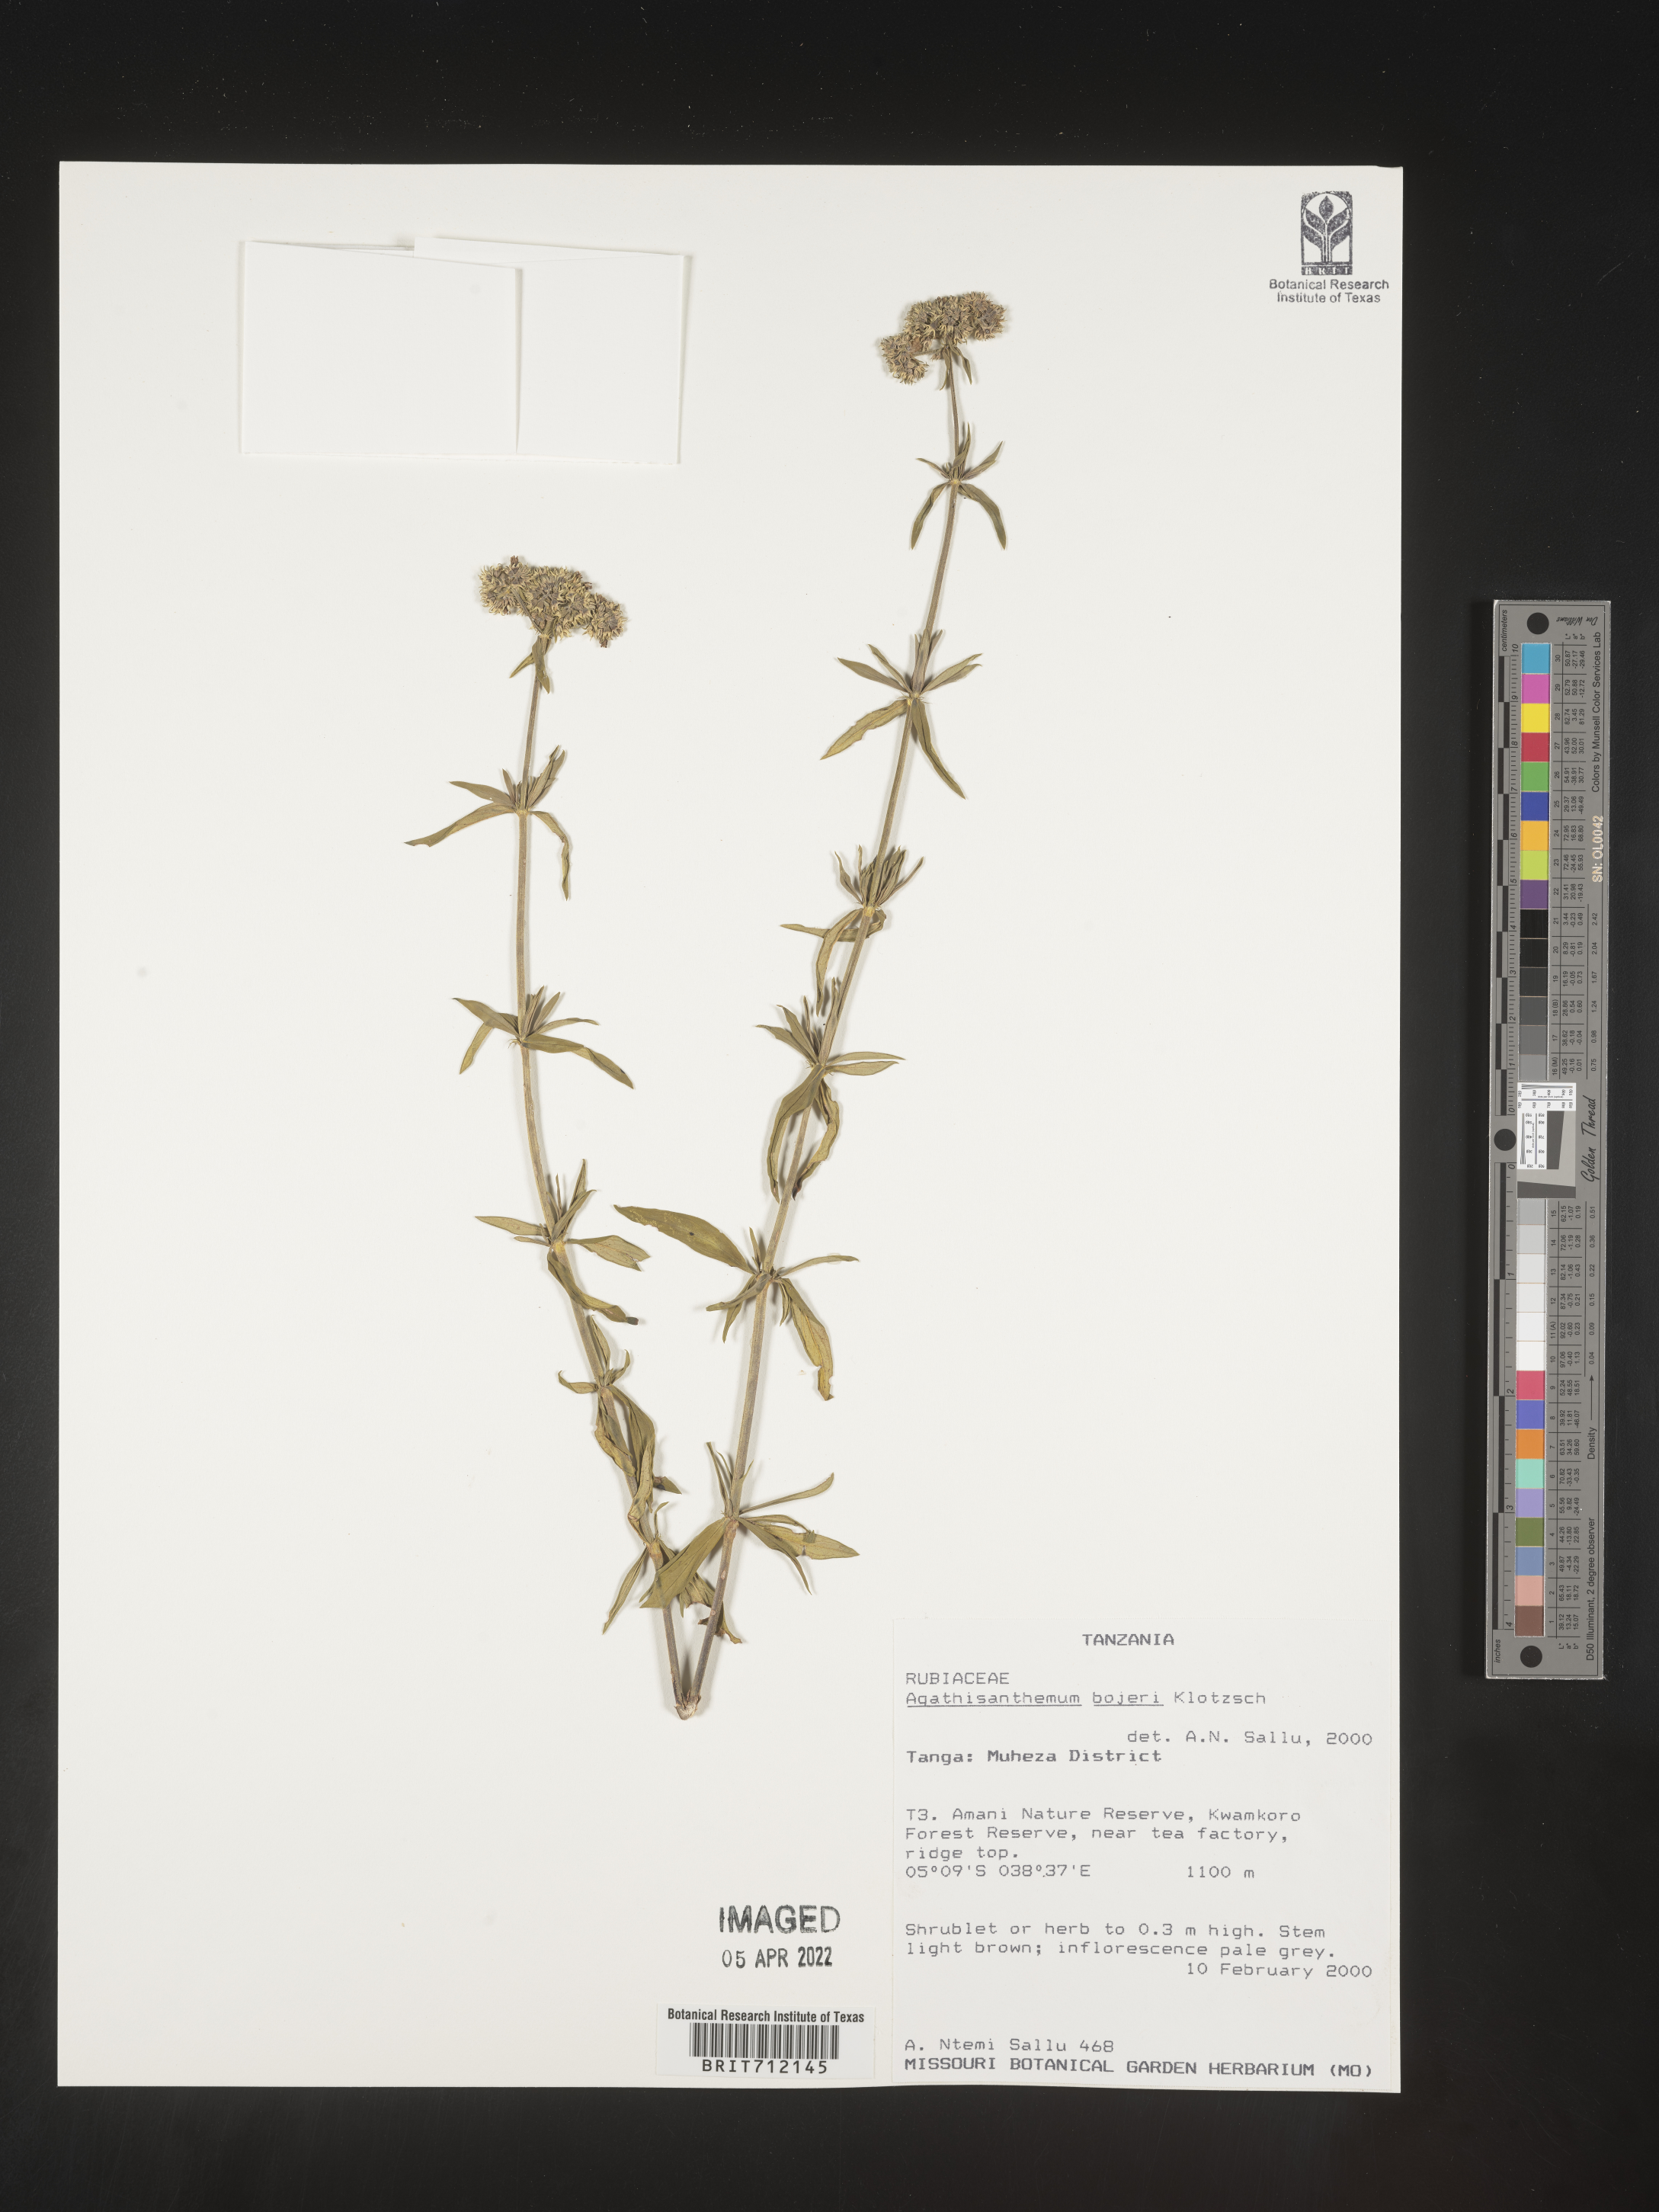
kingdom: Plantae
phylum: Tracheophyta
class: Magnoliopsida
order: Gentianales
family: Rubiaceae
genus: Agathisanthemum
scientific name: Agathisanthemum
